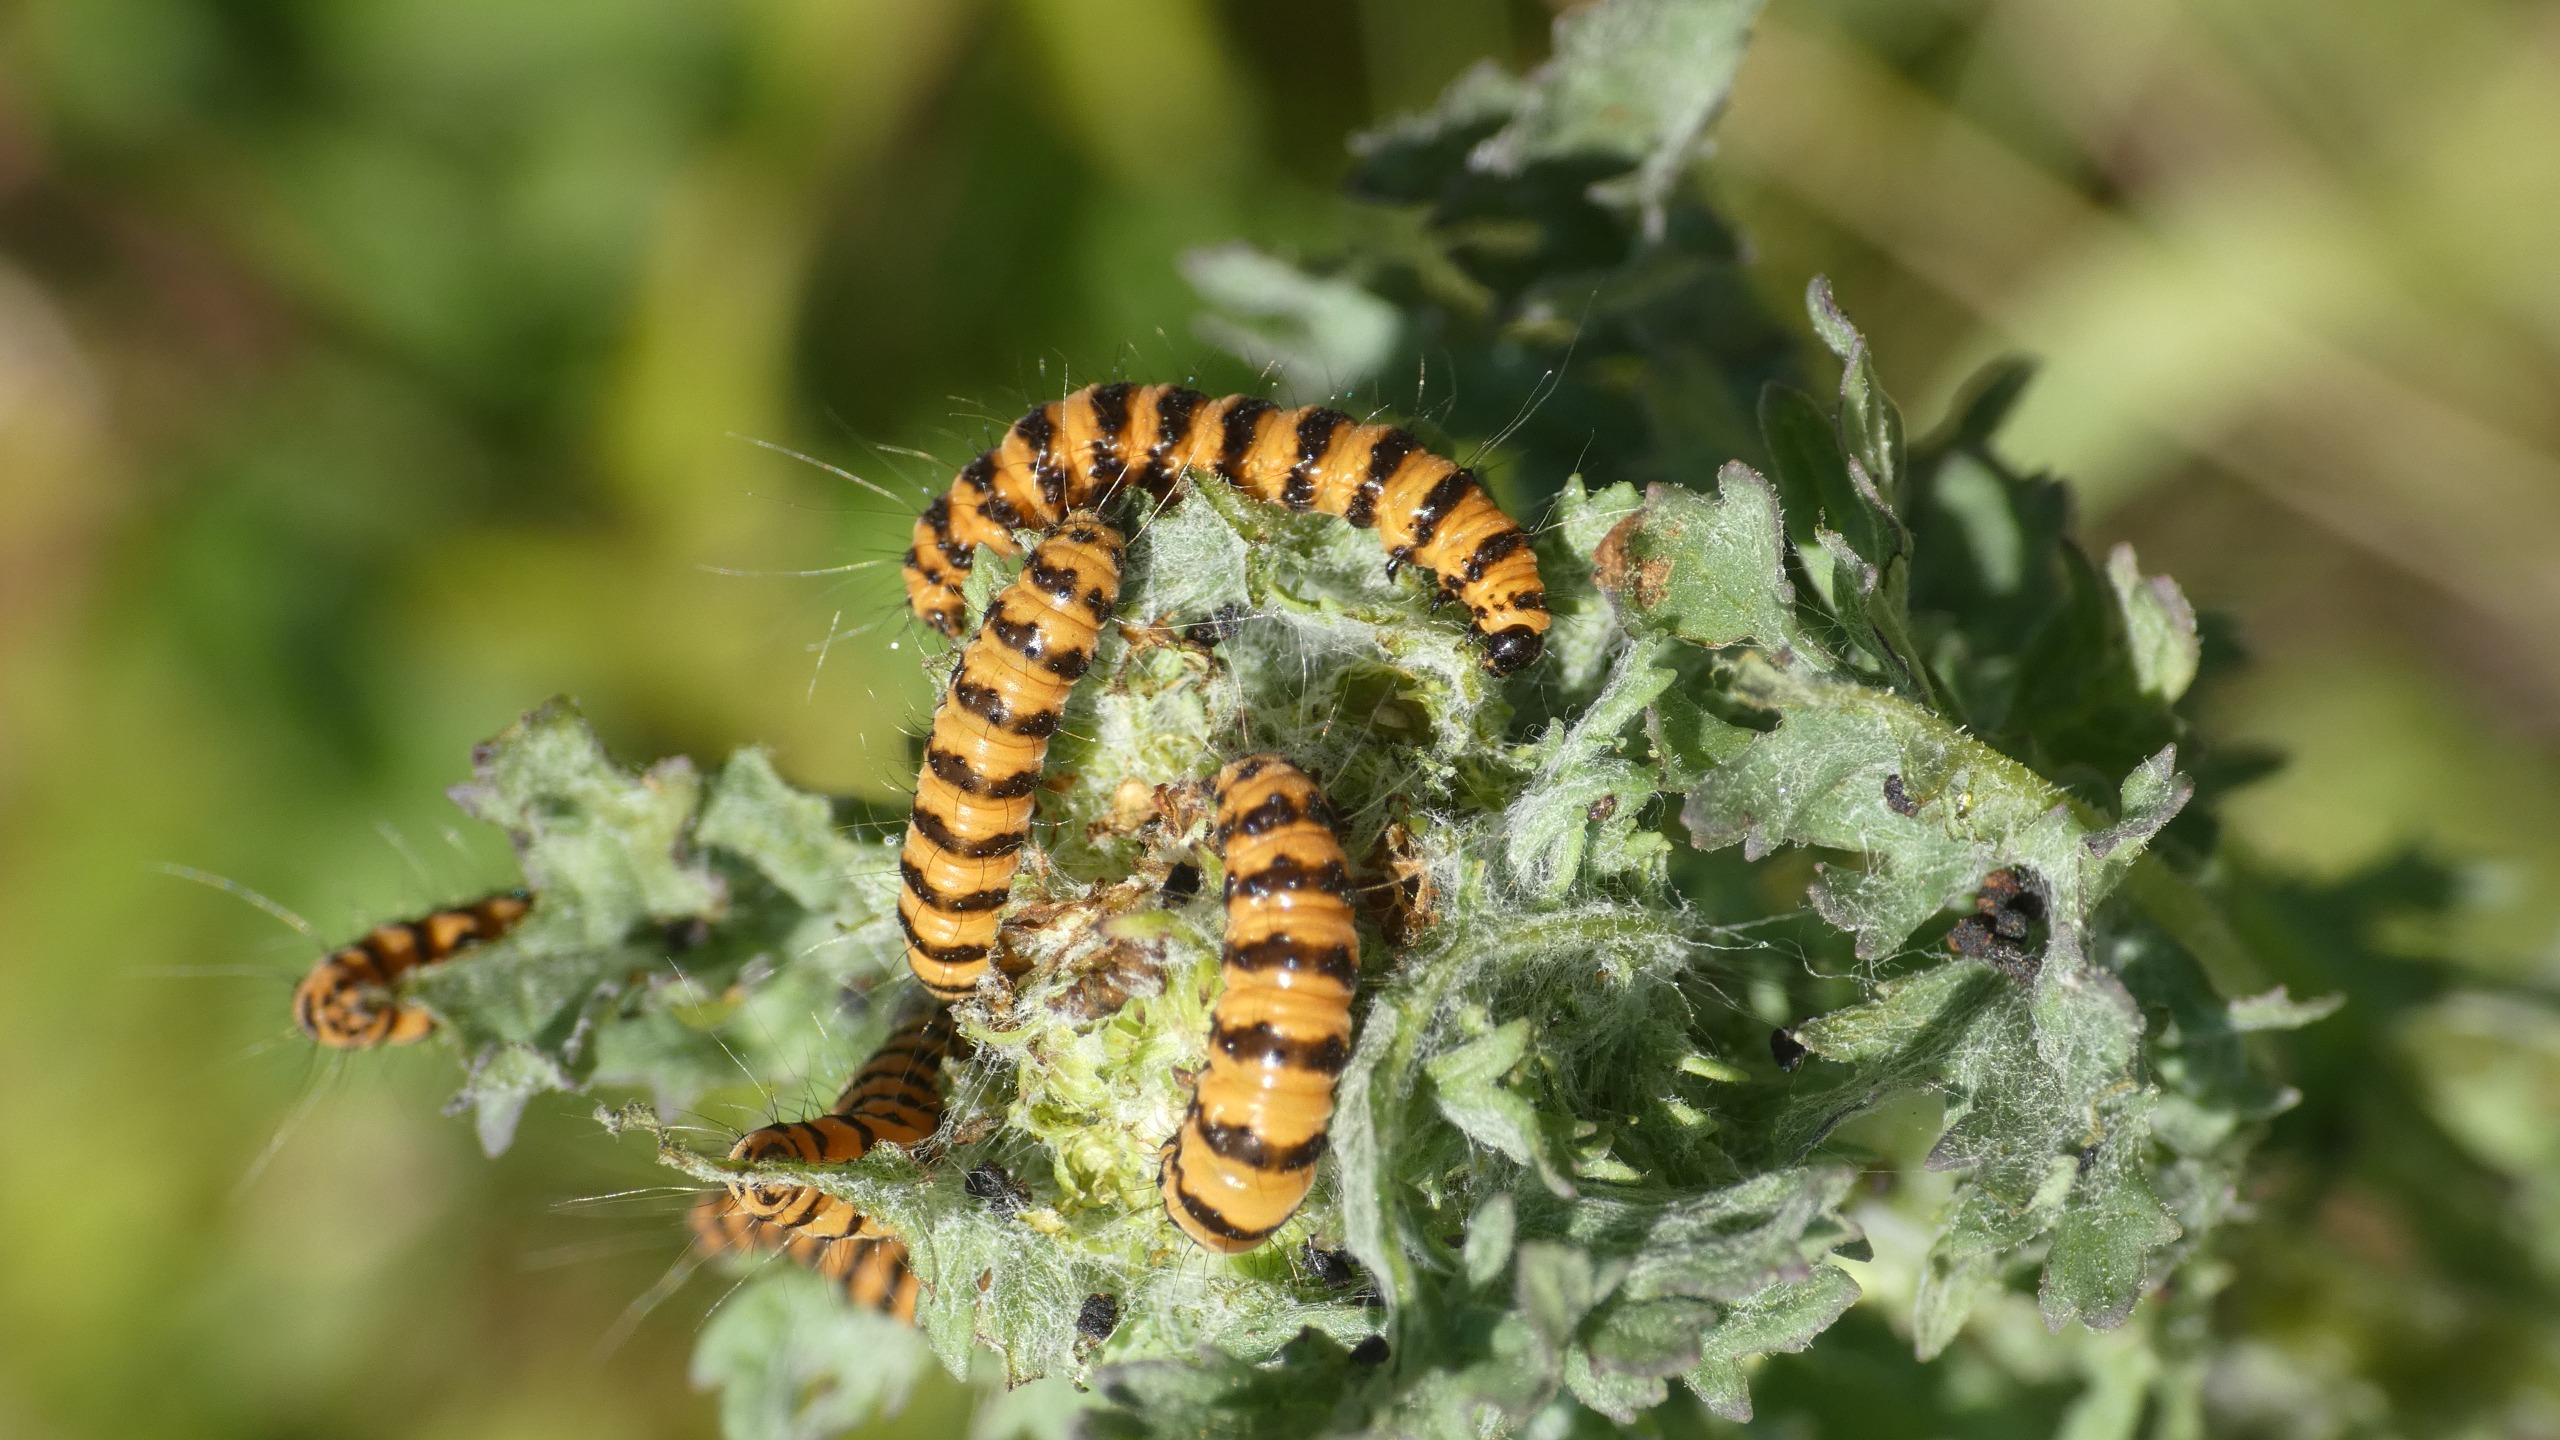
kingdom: Animalia
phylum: Arthropoda
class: Insecta
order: Lepidoptera
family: Erebidae
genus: Tyria
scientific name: Tyria jacobaeae
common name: Blodplet
